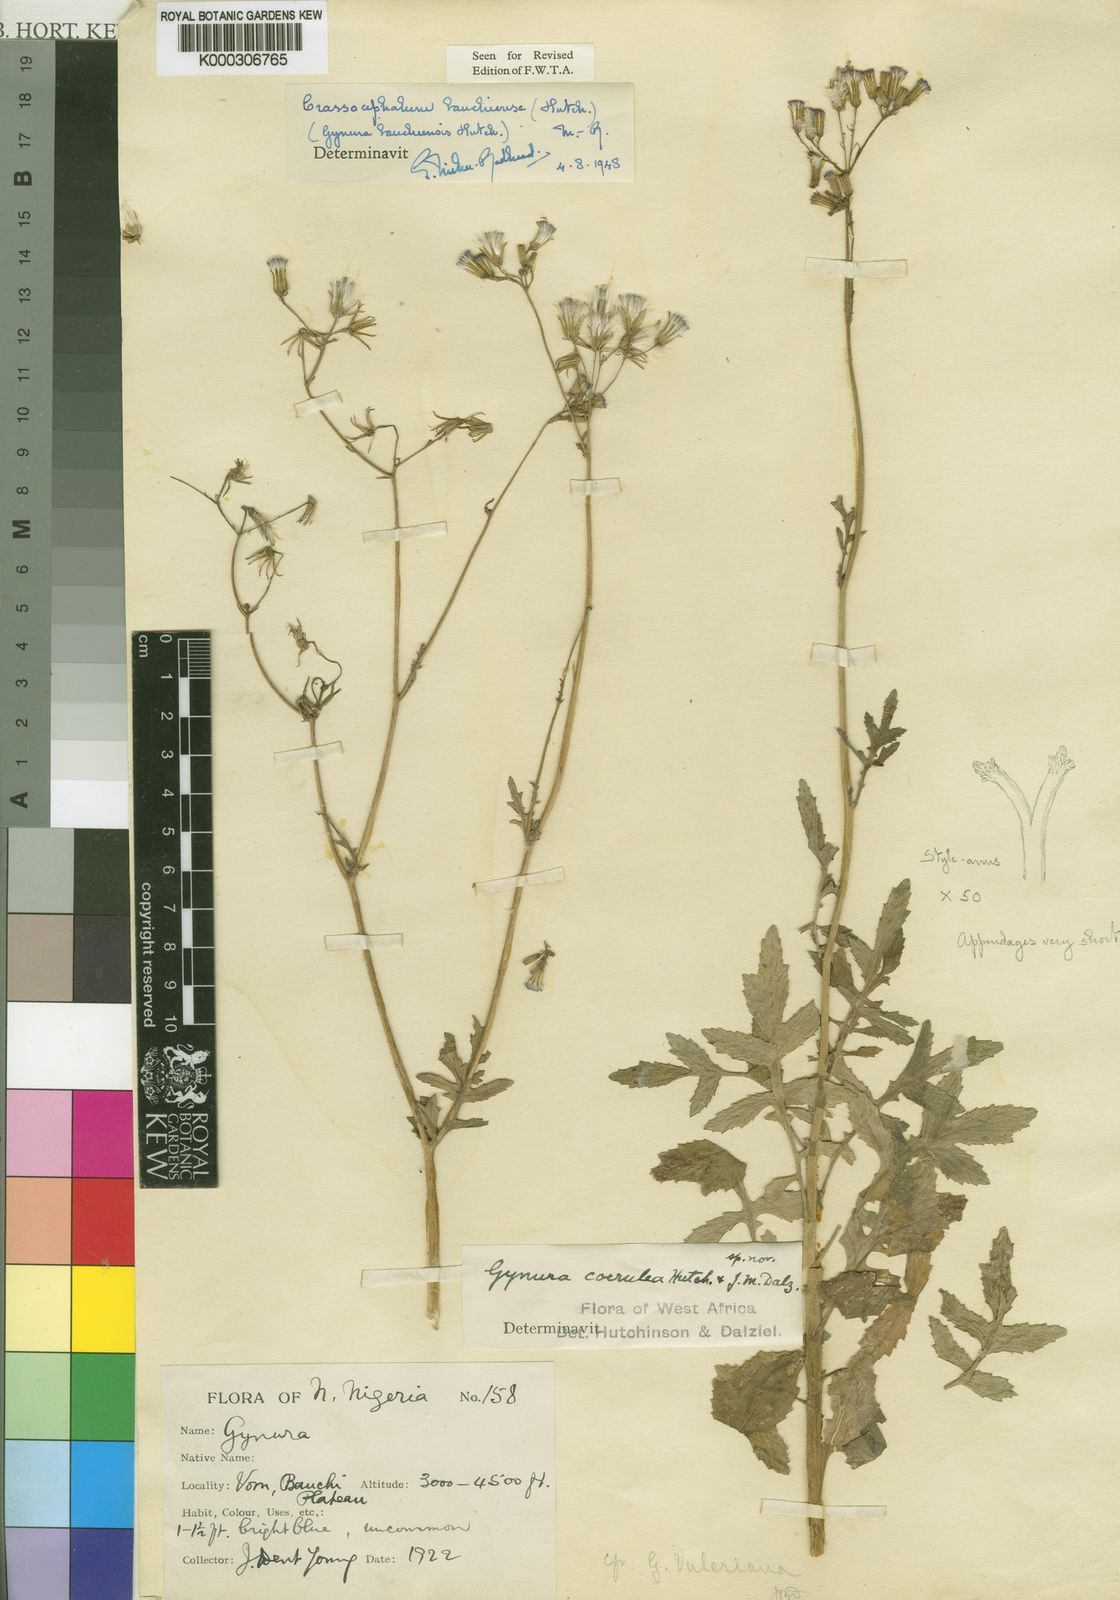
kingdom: Plantae
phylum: Tracheophyta
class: Magnoliopsida
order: Asterales
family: Asteraceae
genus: Crassocephalum
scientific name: Crassocephalum bauchiense
